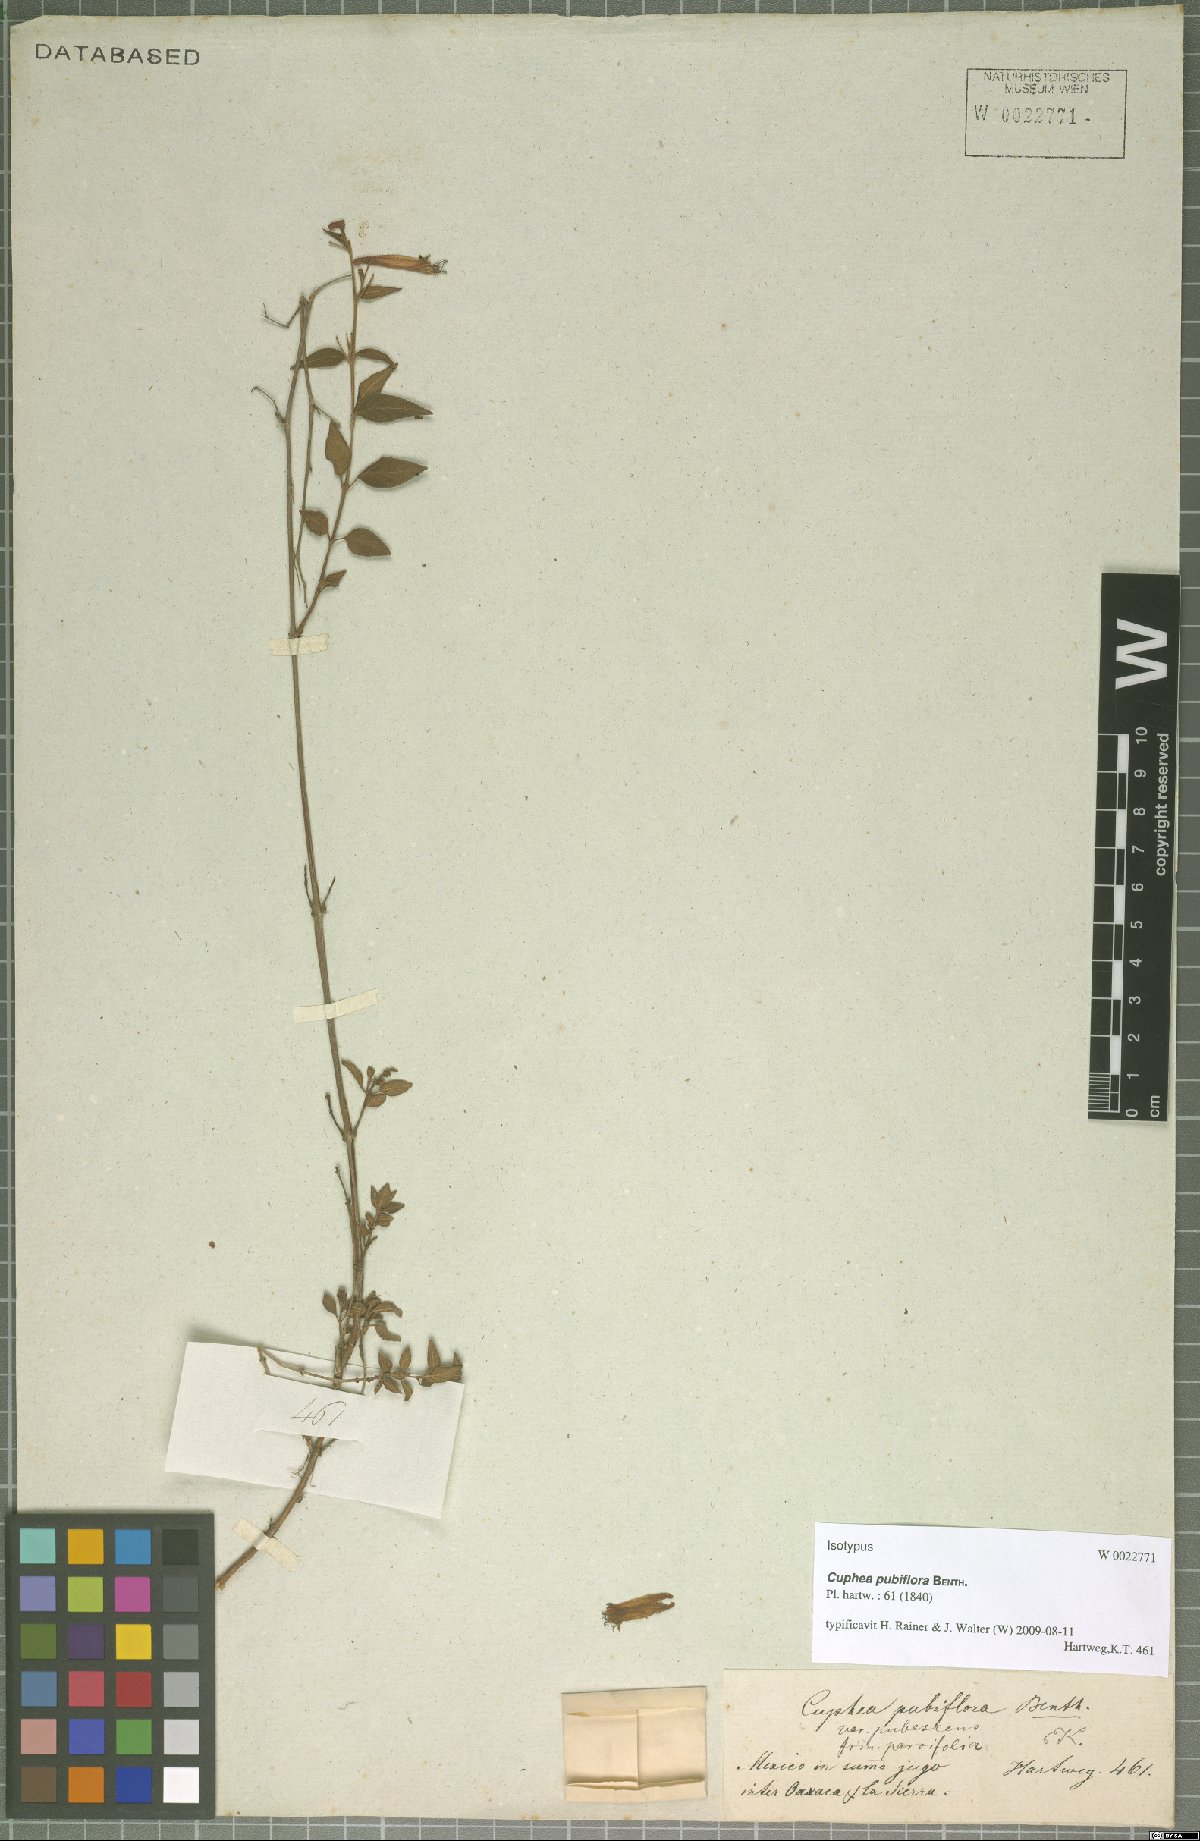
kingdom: Plantae
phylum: Tracheophyta
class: Magnoliopsida
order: Myrtales
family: Lythraceae
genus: Cuphea
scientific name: Cuphea cyanea
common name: Black-eyed cuphea
